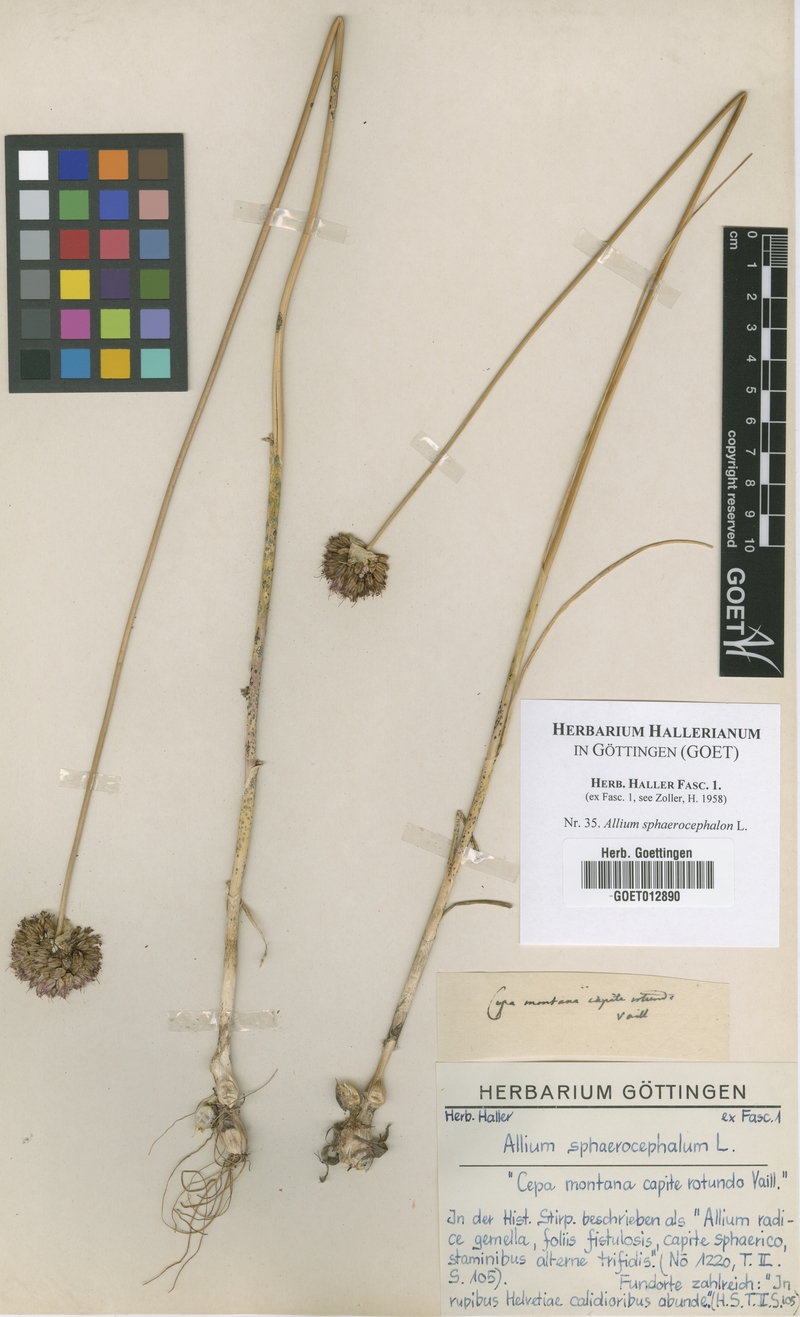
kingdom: Plantae
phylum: Tracheophyta
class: Liliopsida
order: Asparagales
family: Amaryllidaceae
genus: Allium
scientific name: Allium sphaerocephalon
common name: Round-headed leek
